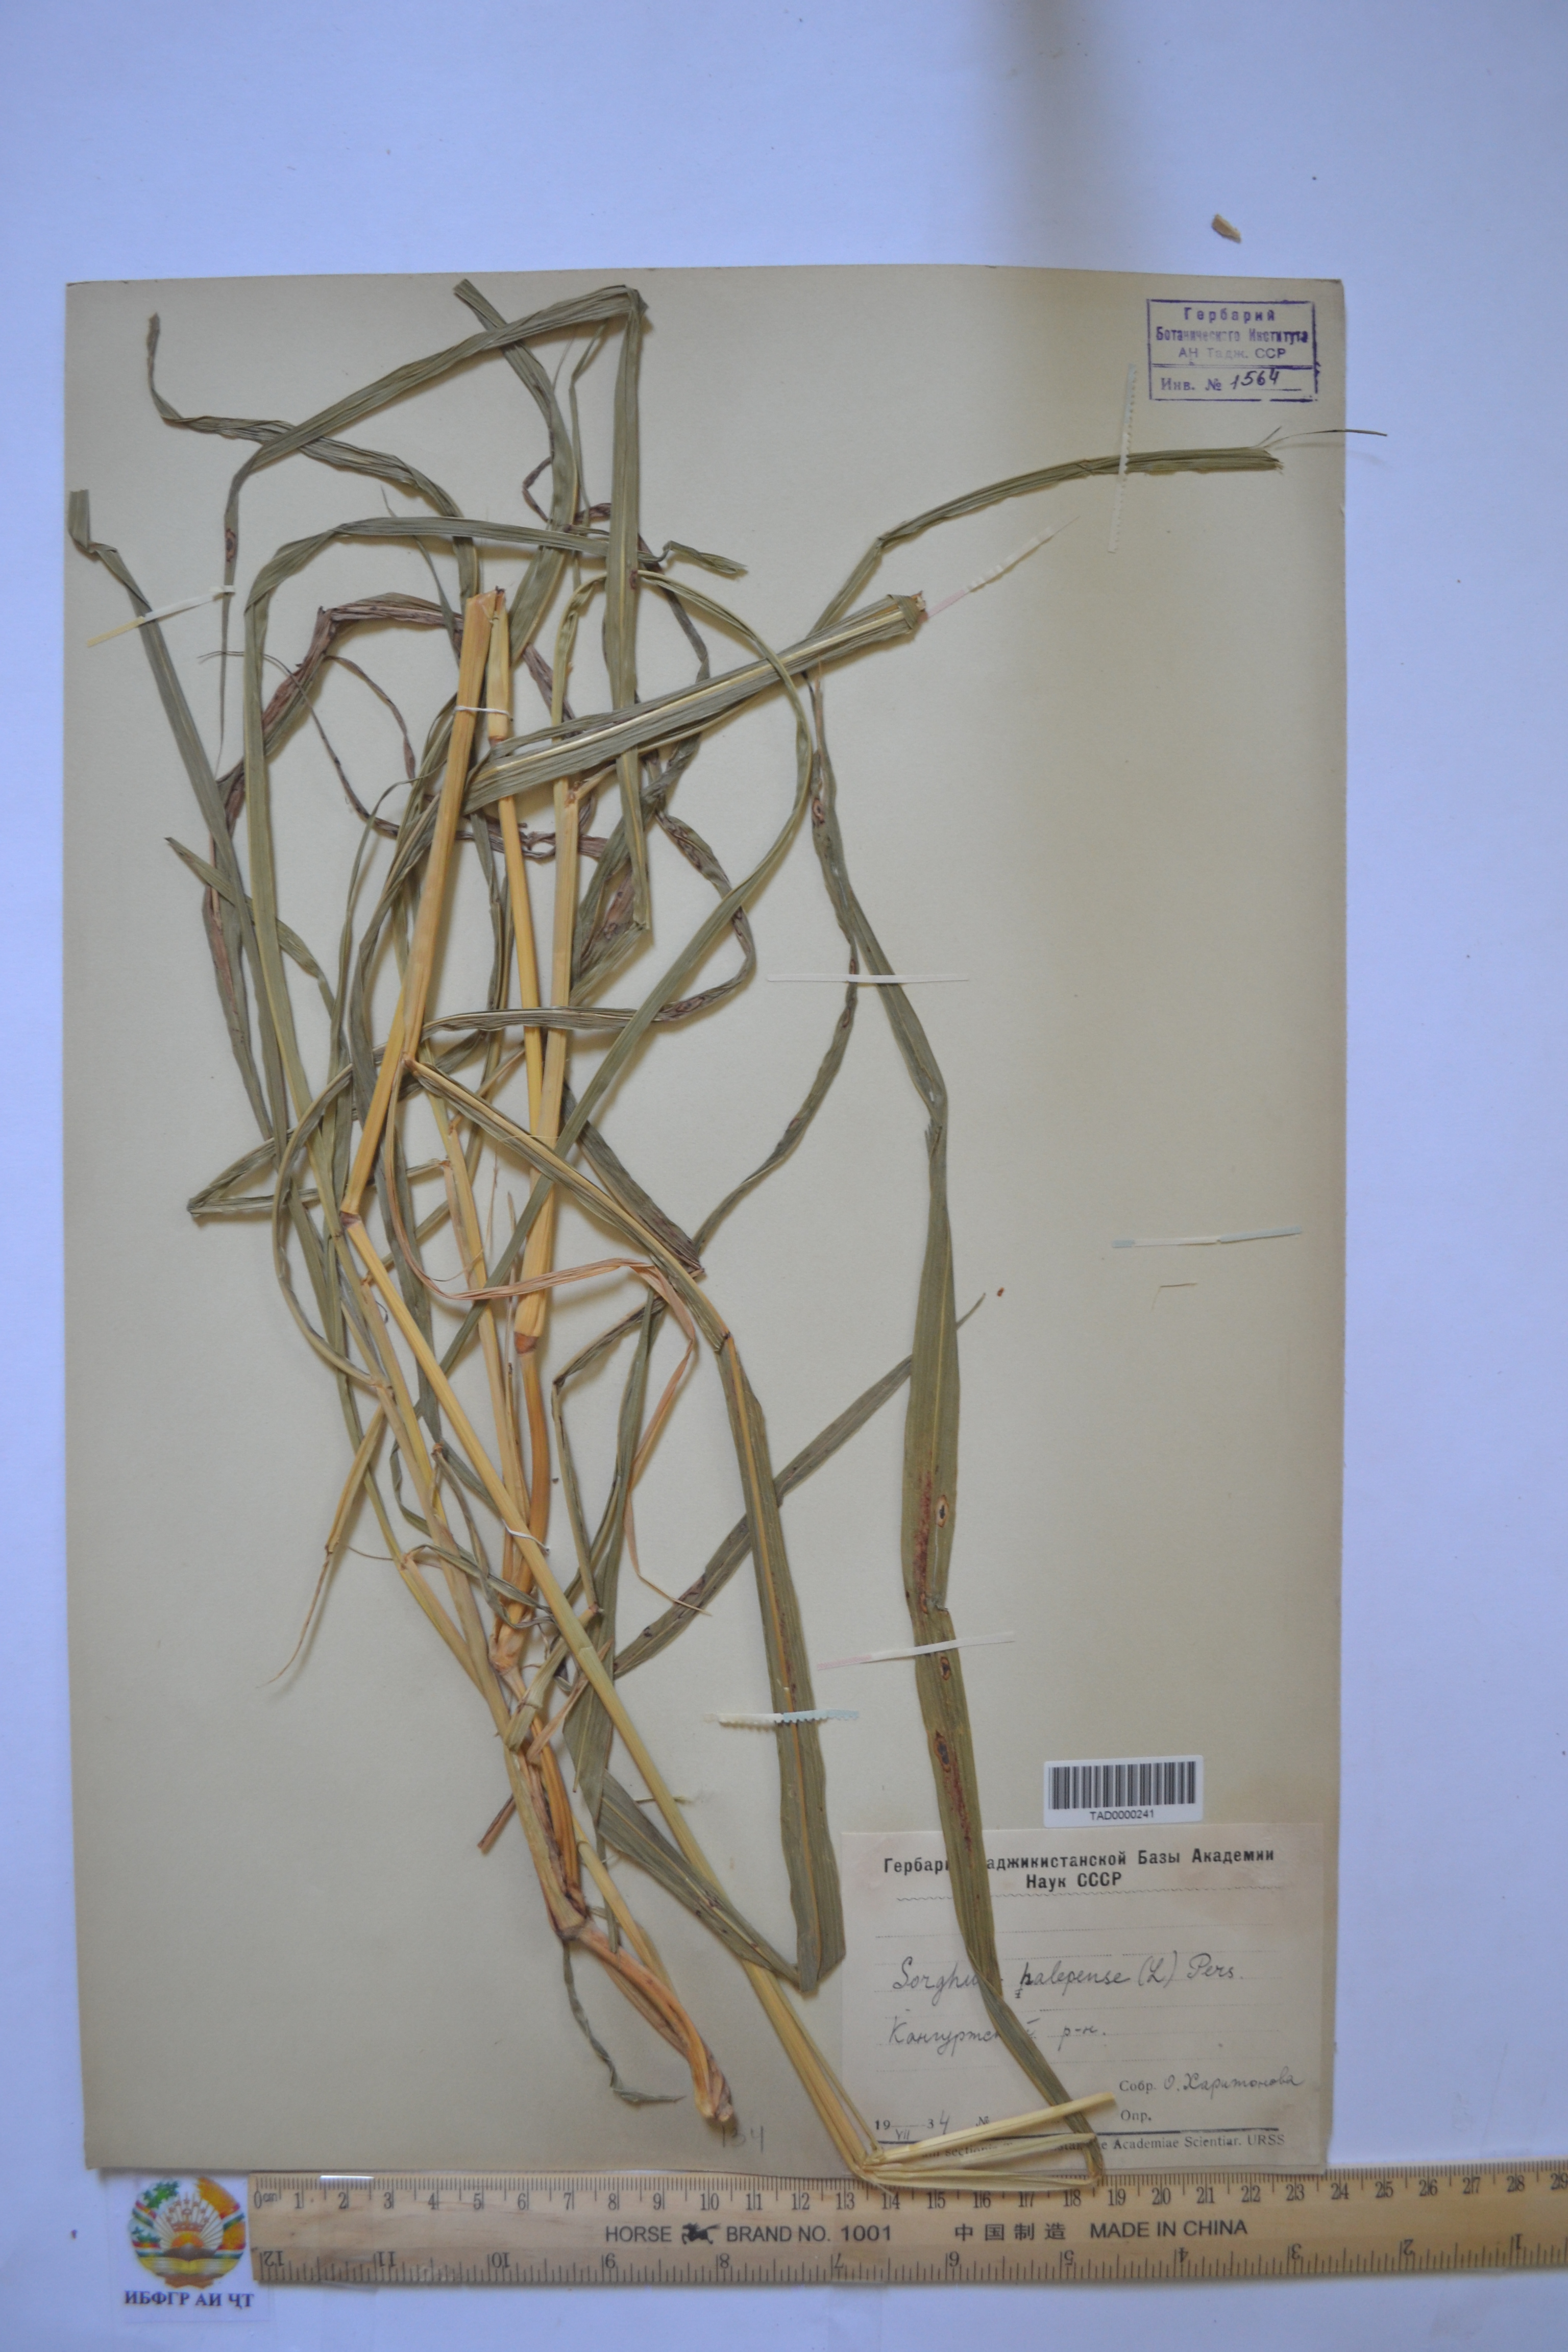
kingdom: Plantae
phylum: Tracheophyta
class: Liliopsida
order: Poales
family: Poaceae
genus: Sorghum
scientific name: Sorghum halepense
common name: Johnson-grass
